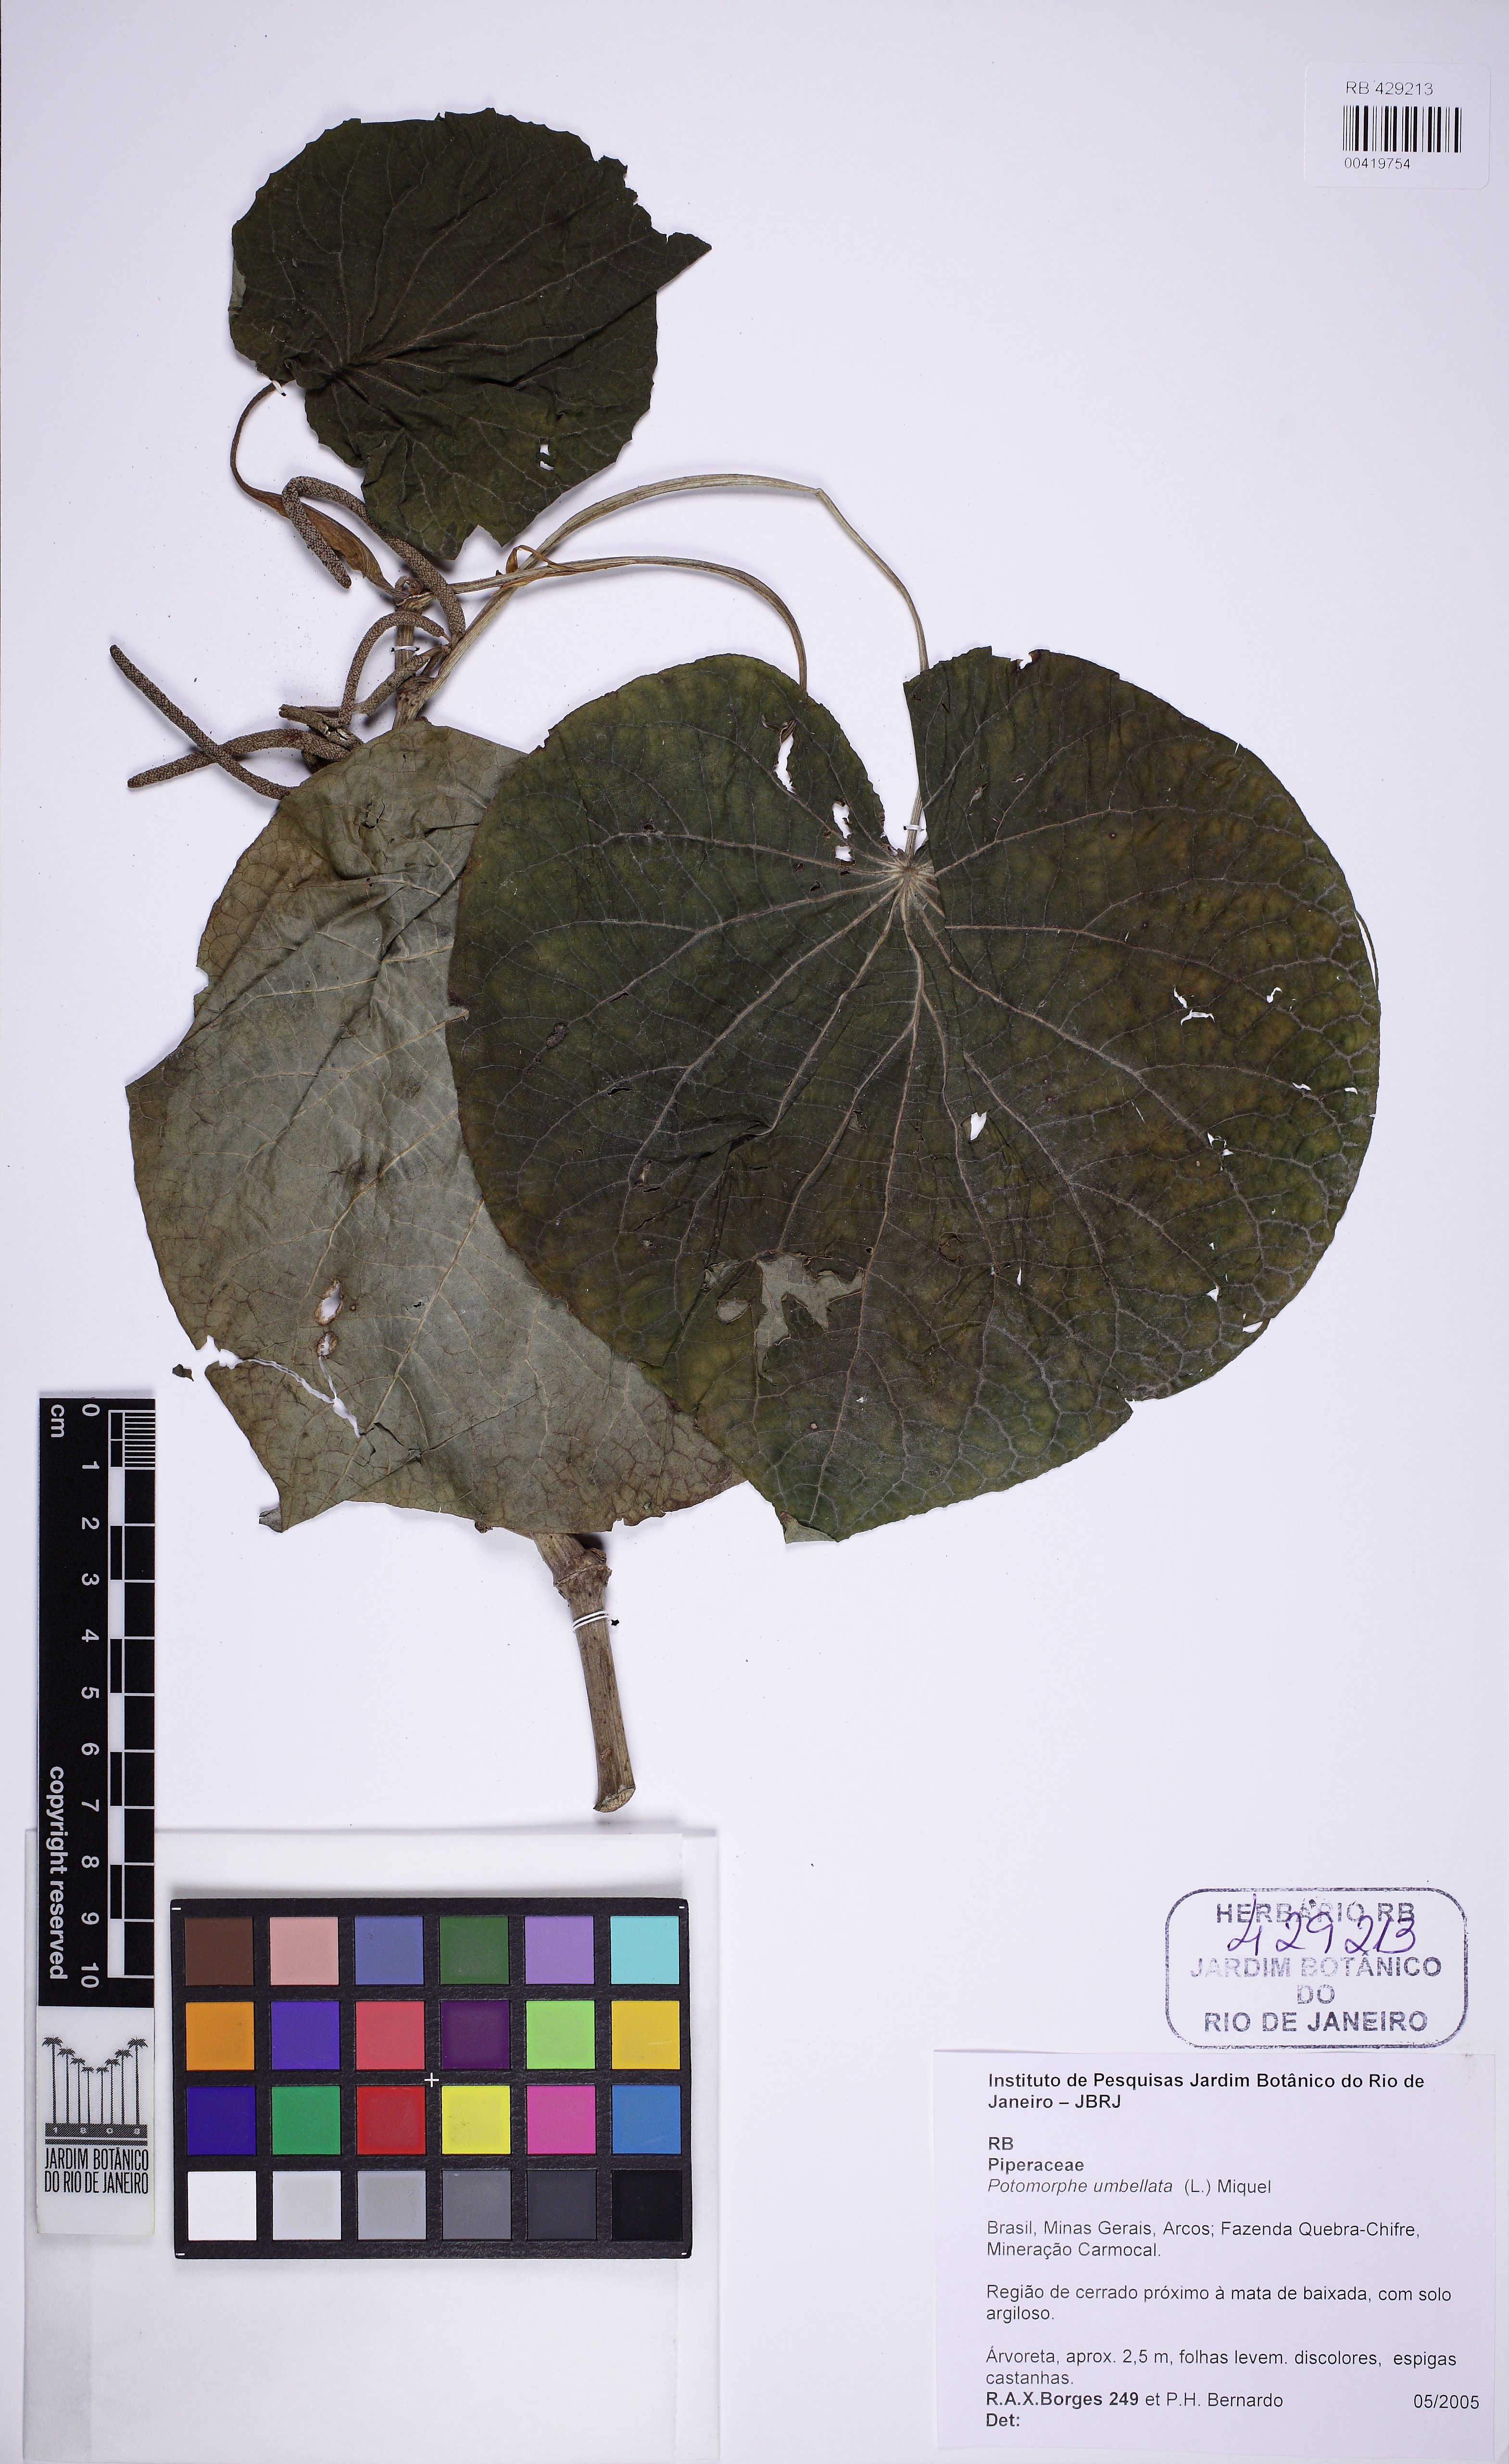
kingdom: Plantae
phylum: Tracheophyta
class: Magnoliopsida
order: Piperales
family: Piperaceae
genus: Piper
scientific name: Piper umbellatum
